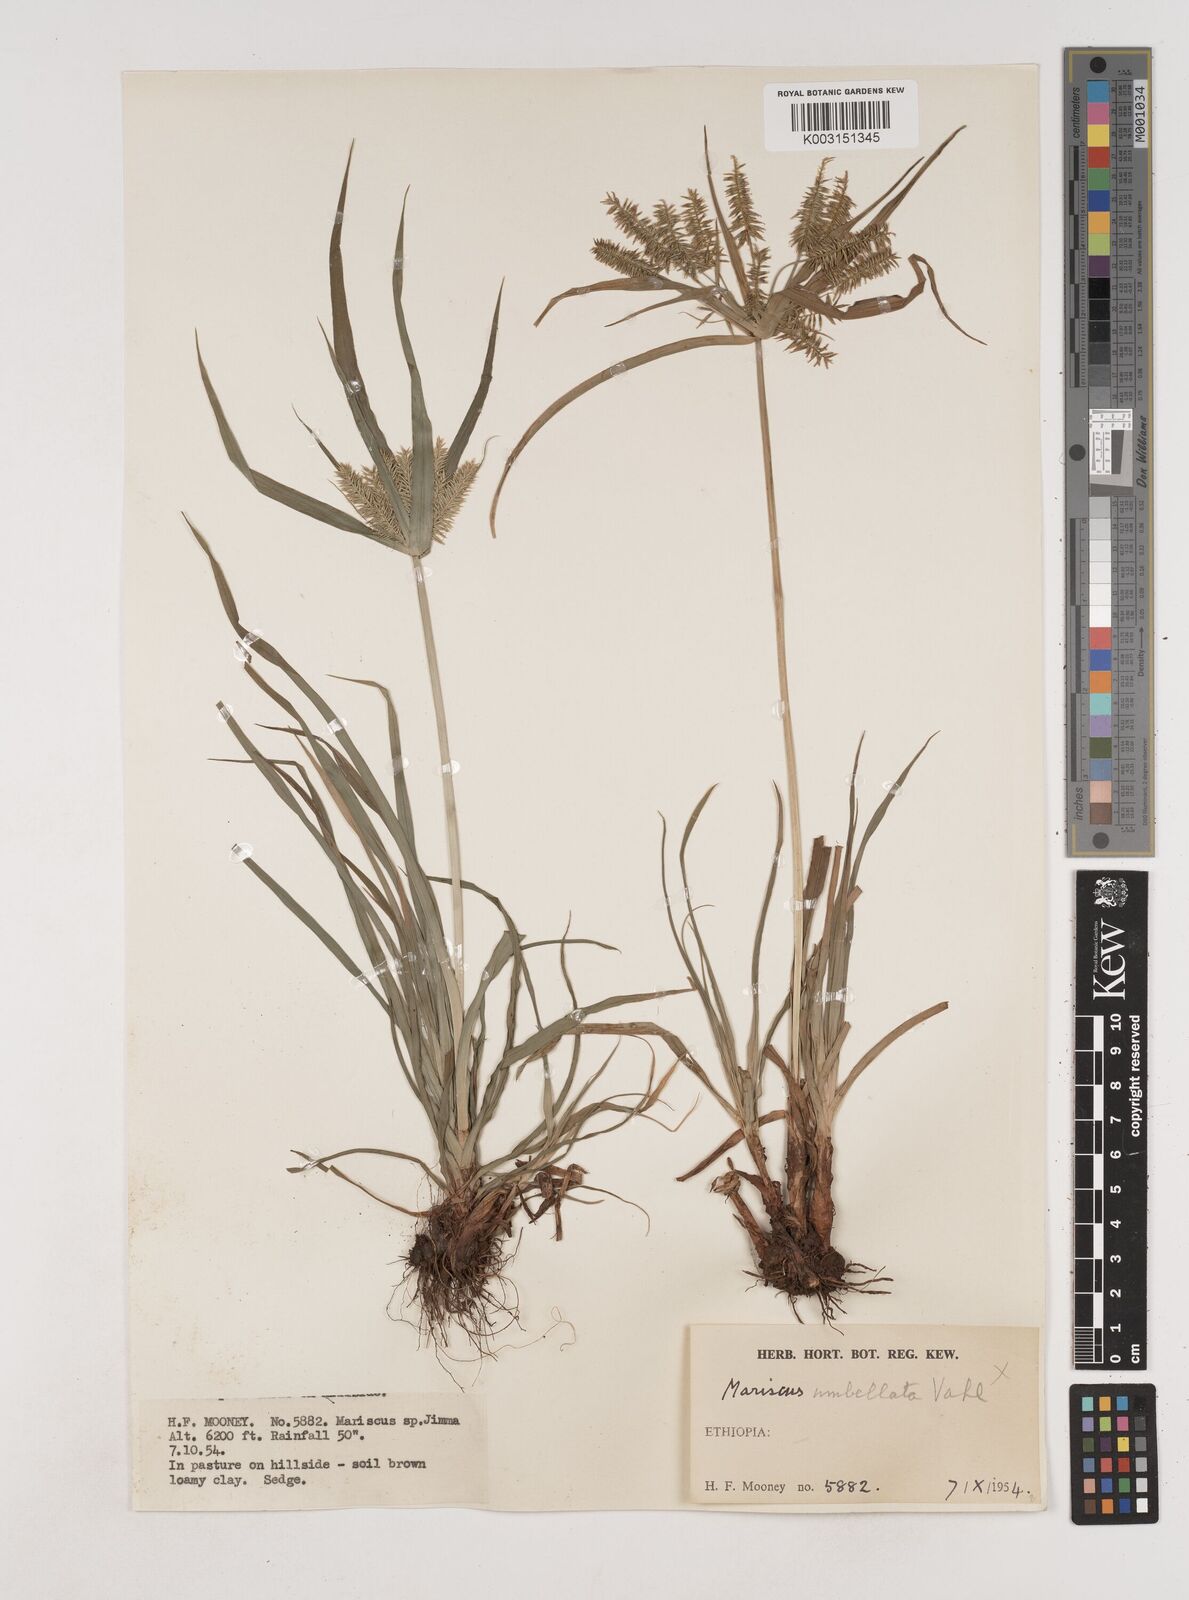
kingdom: Plantae
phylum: Tracheophyta
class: Liliopsida
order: Poales
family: Cyperaceae
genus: Cyperus
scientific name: Cyperus cyperoides
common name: Pacific island flat sedge
